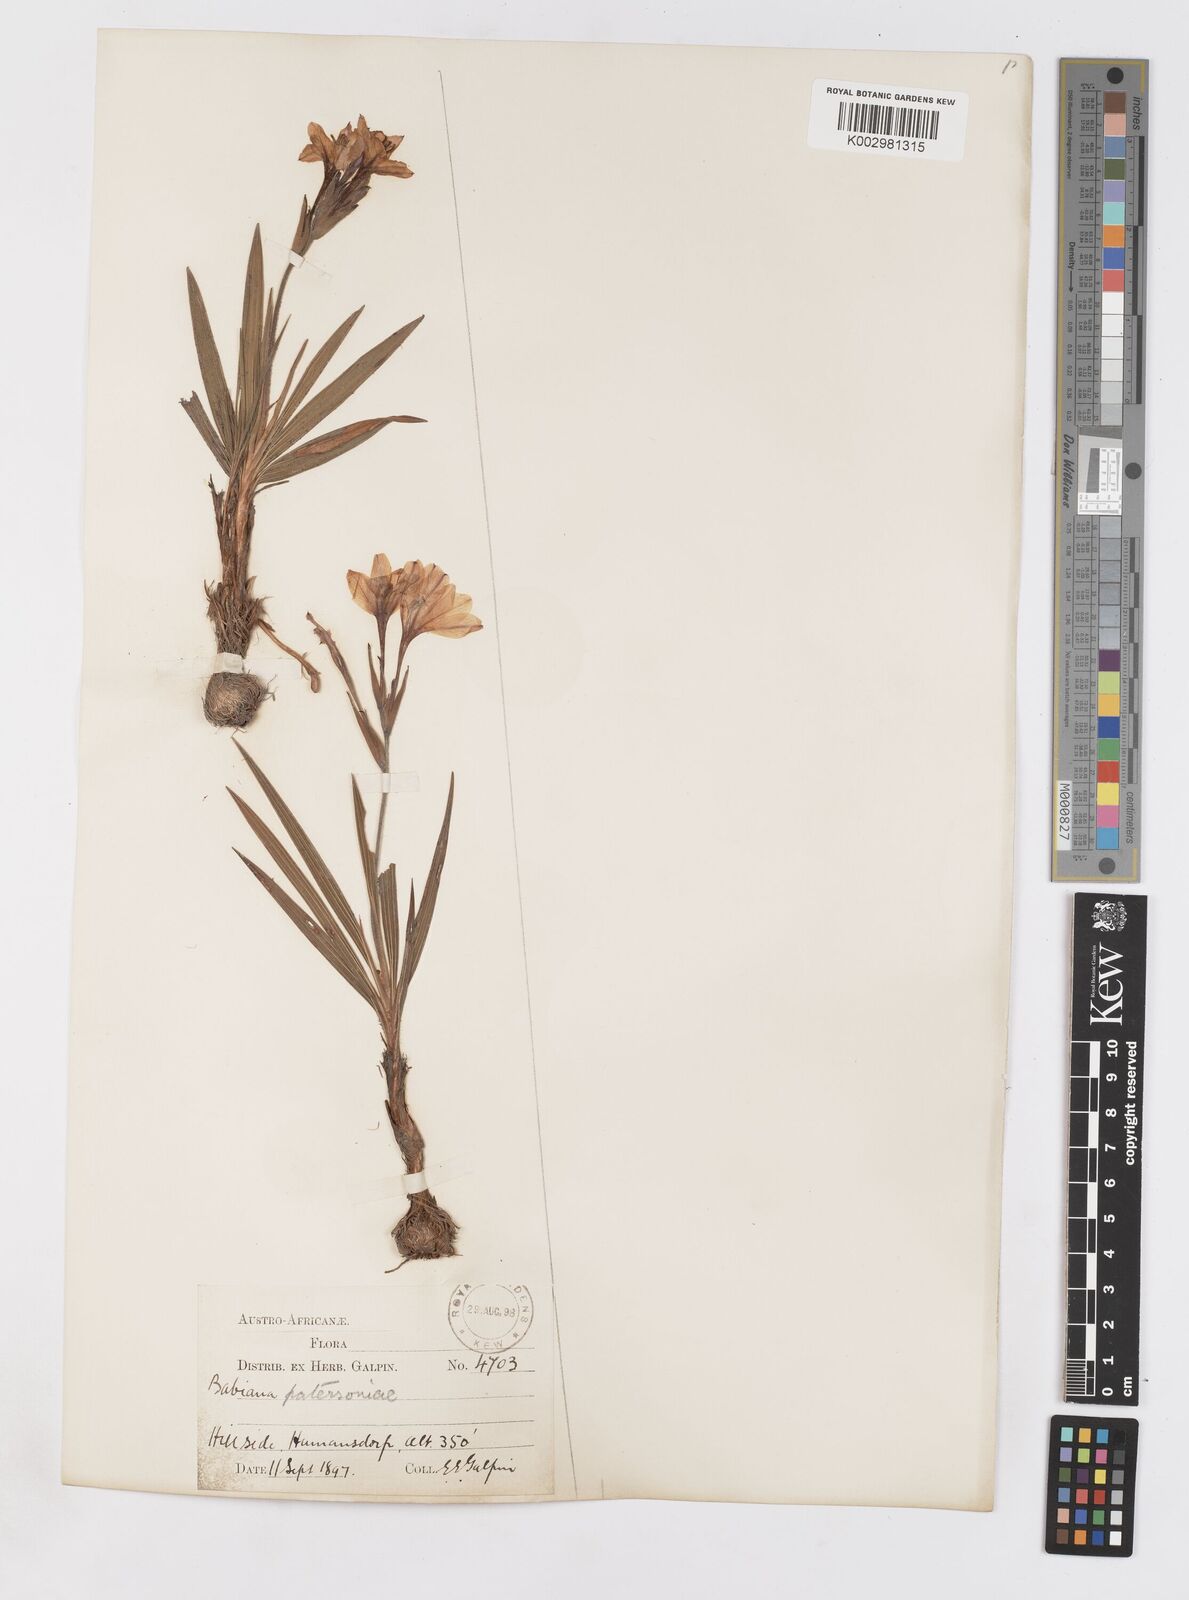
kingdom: Plantae
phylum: Tracheophyta
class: Liliopsida
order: Asparagales
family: Iridaceae
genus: Babiana
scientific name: Babiana patersoniae
